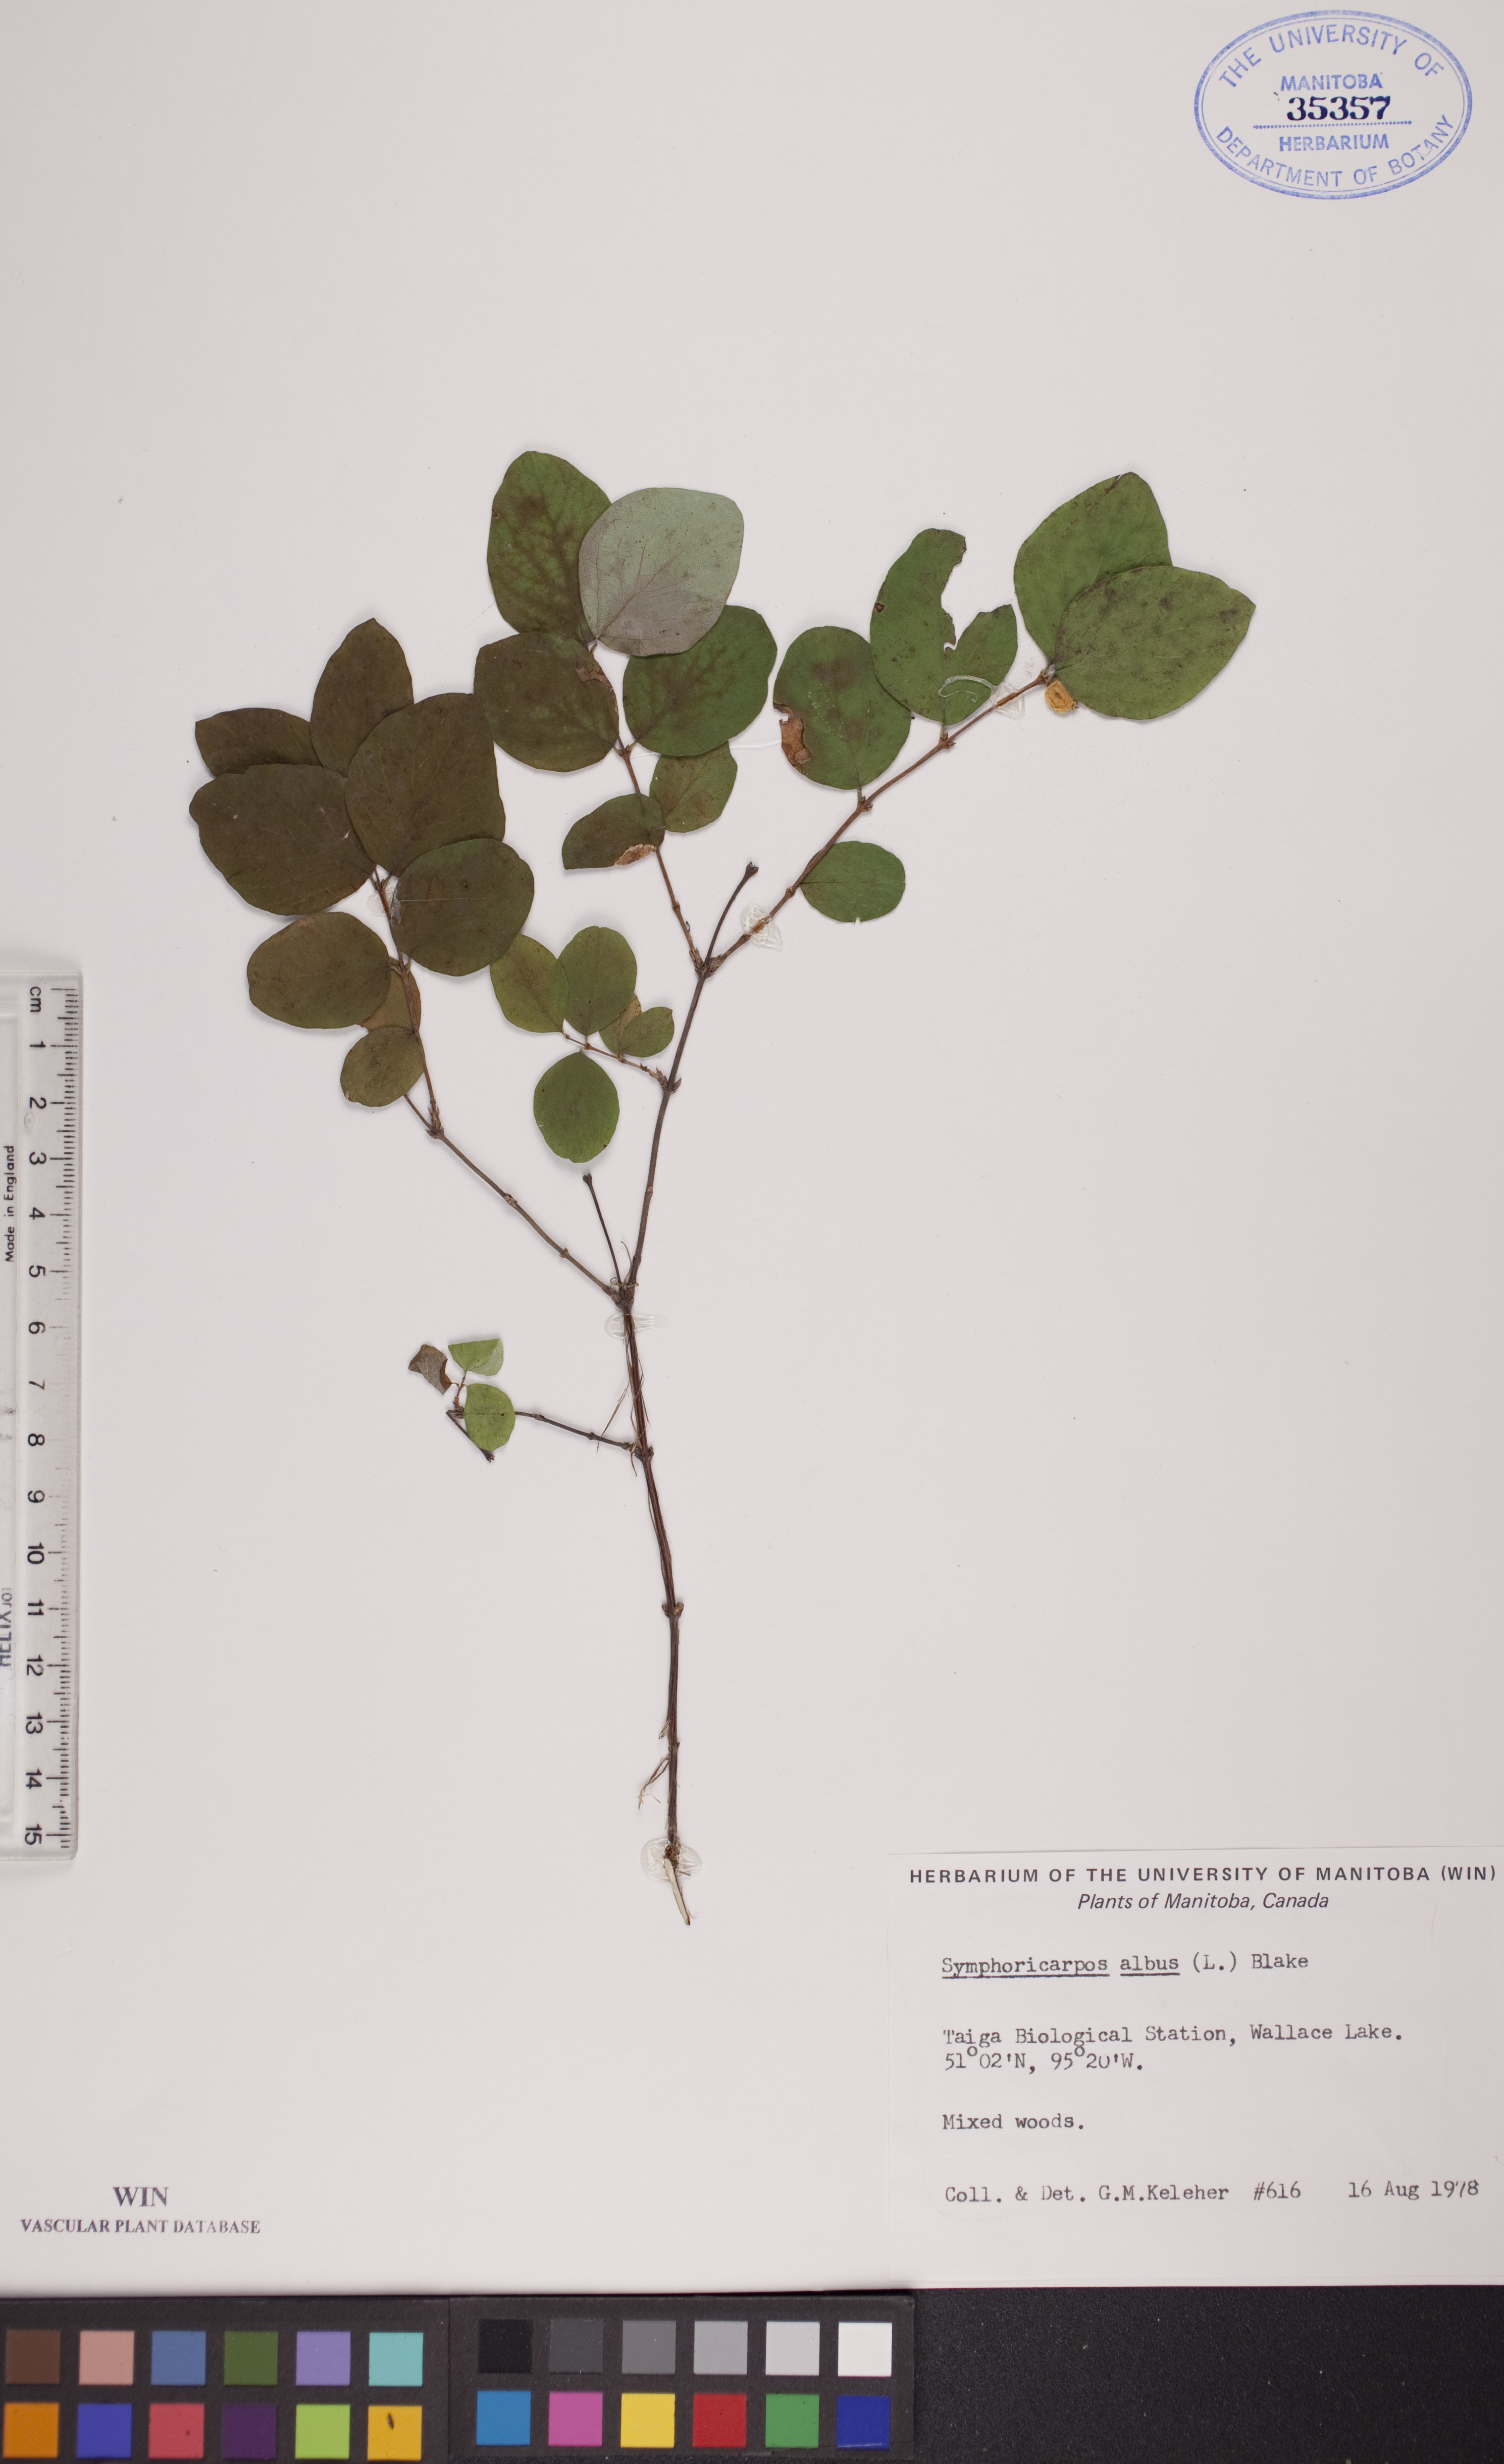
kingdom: Plantae
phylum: Tracheophyta
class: Magnoliopsida
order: Dipsacales
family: Caprifoliaceae
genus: Symphoricarpos
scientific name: Symphoricarpos albus
